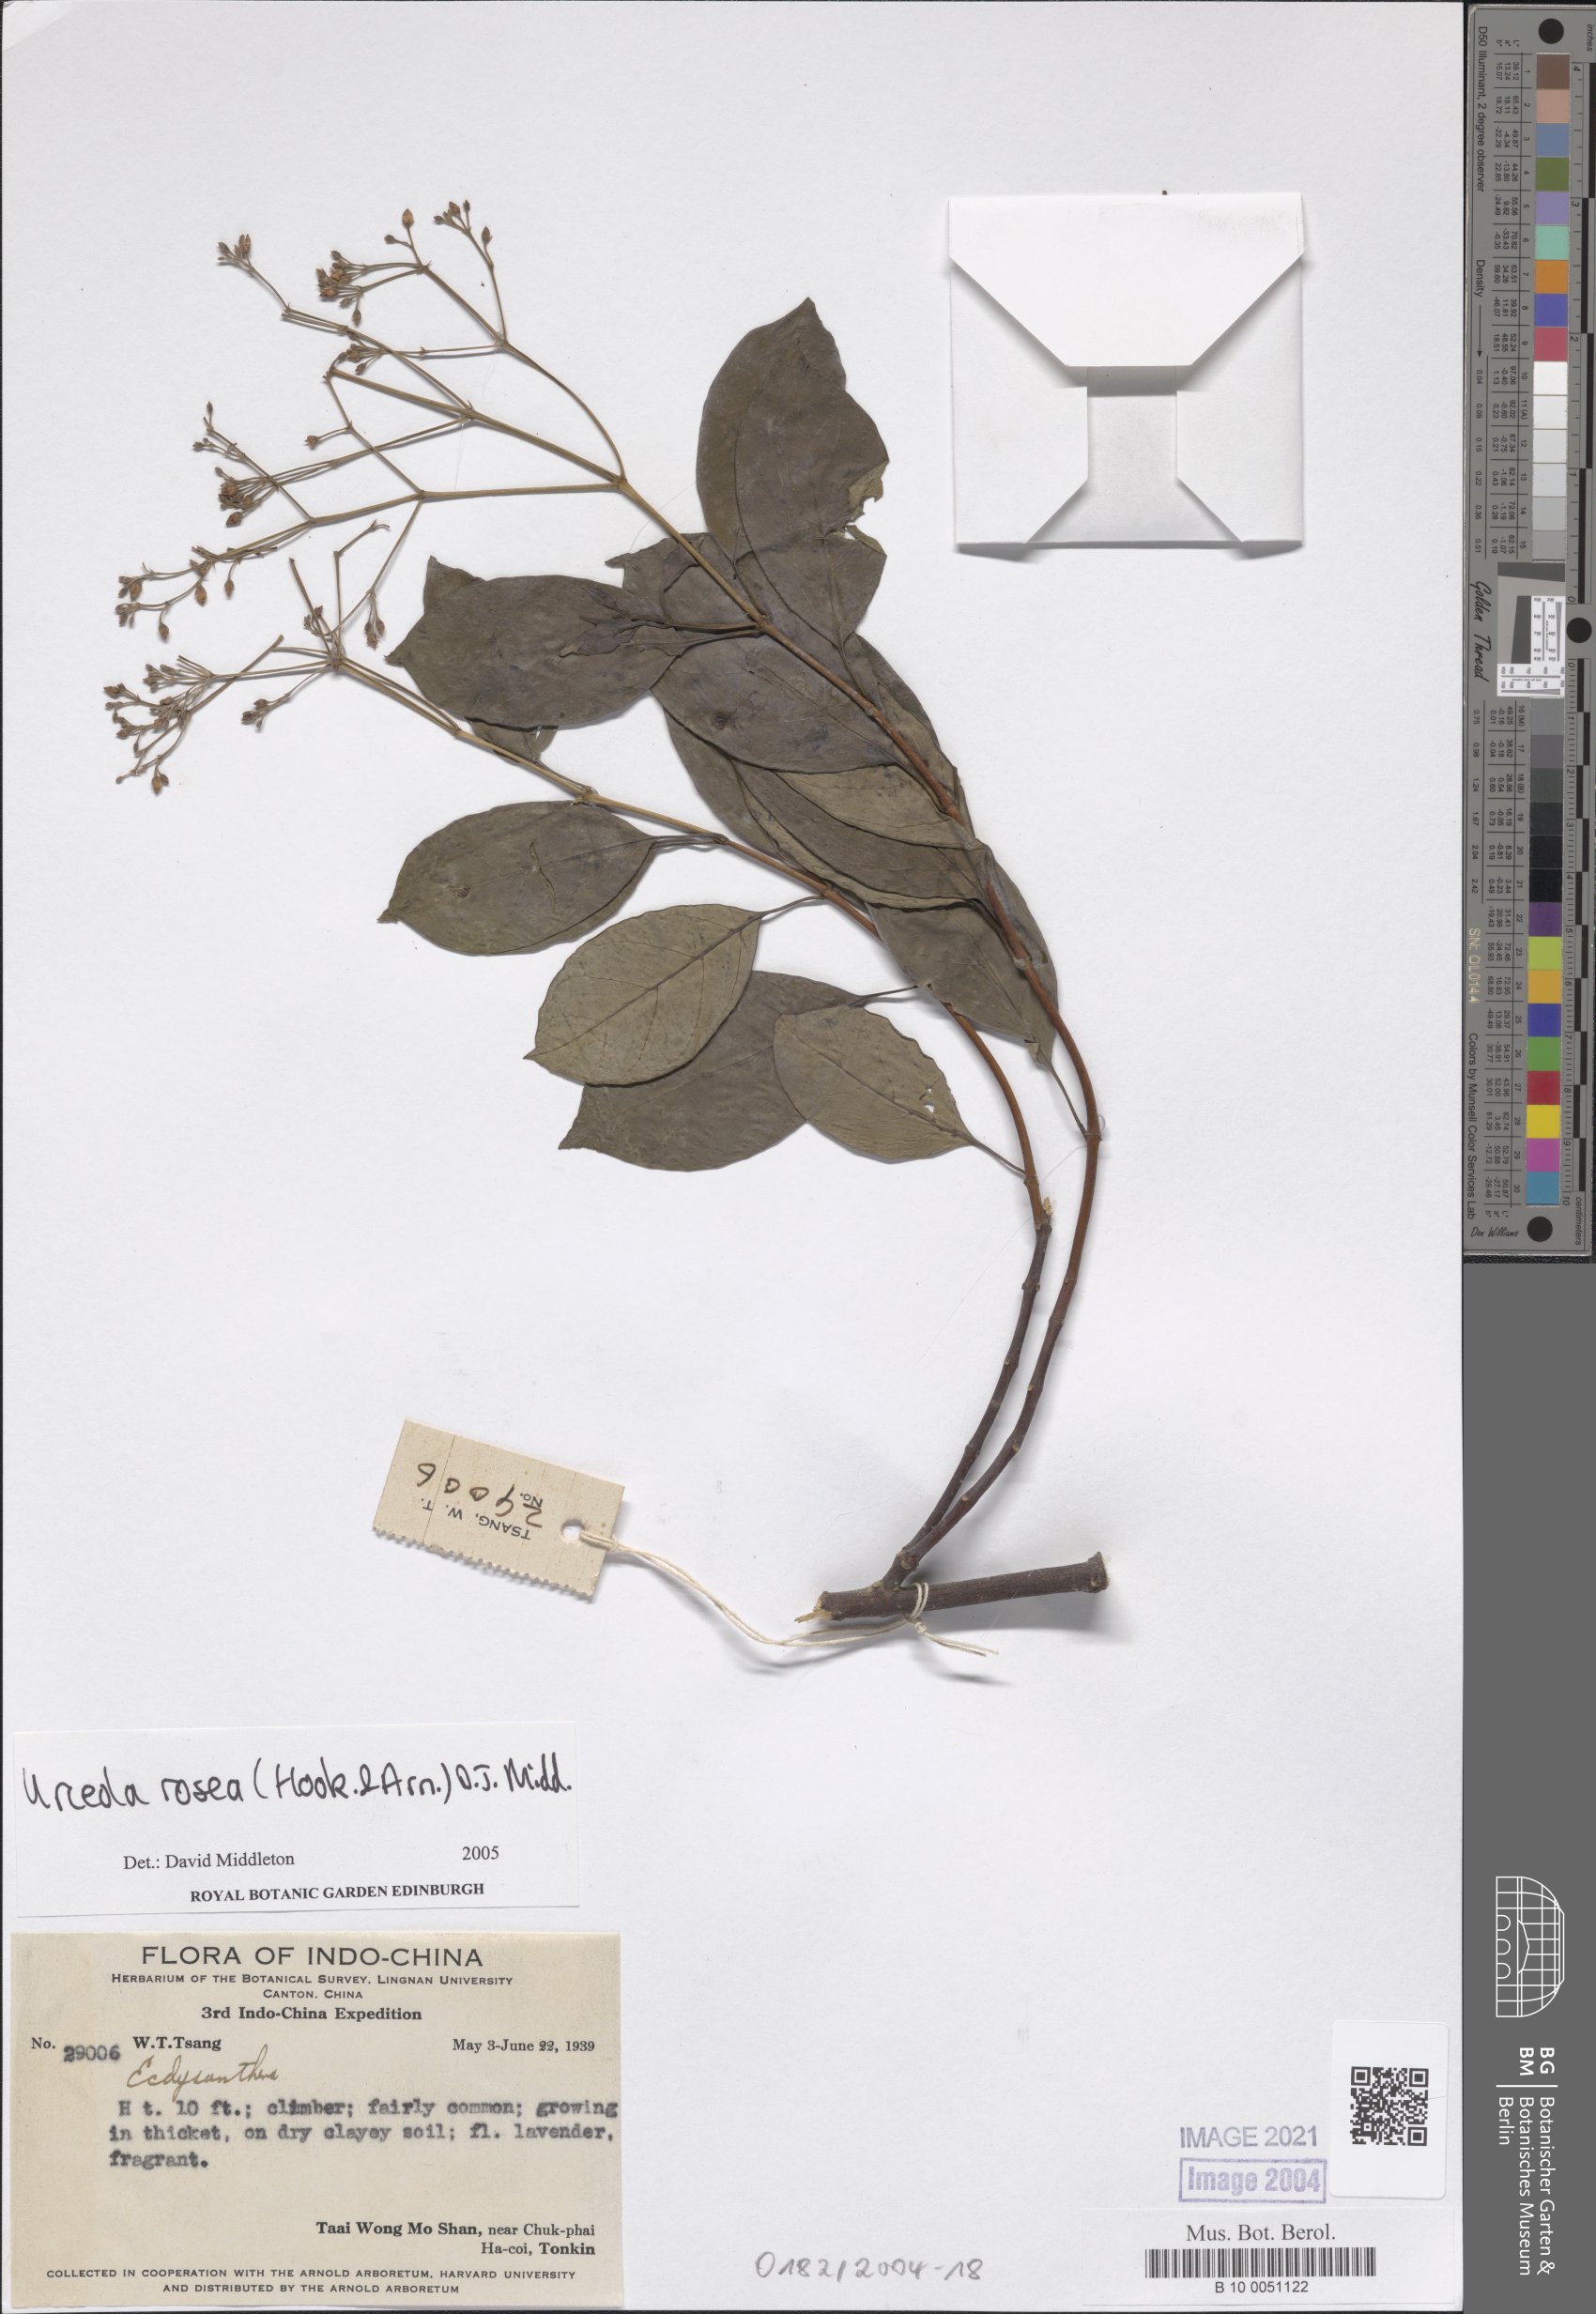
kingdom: Plantae
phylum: Tracheophyta
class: Magnoliopsida
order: Gentianales
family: Apocynaceae
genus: Urceola
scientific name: Urceola
